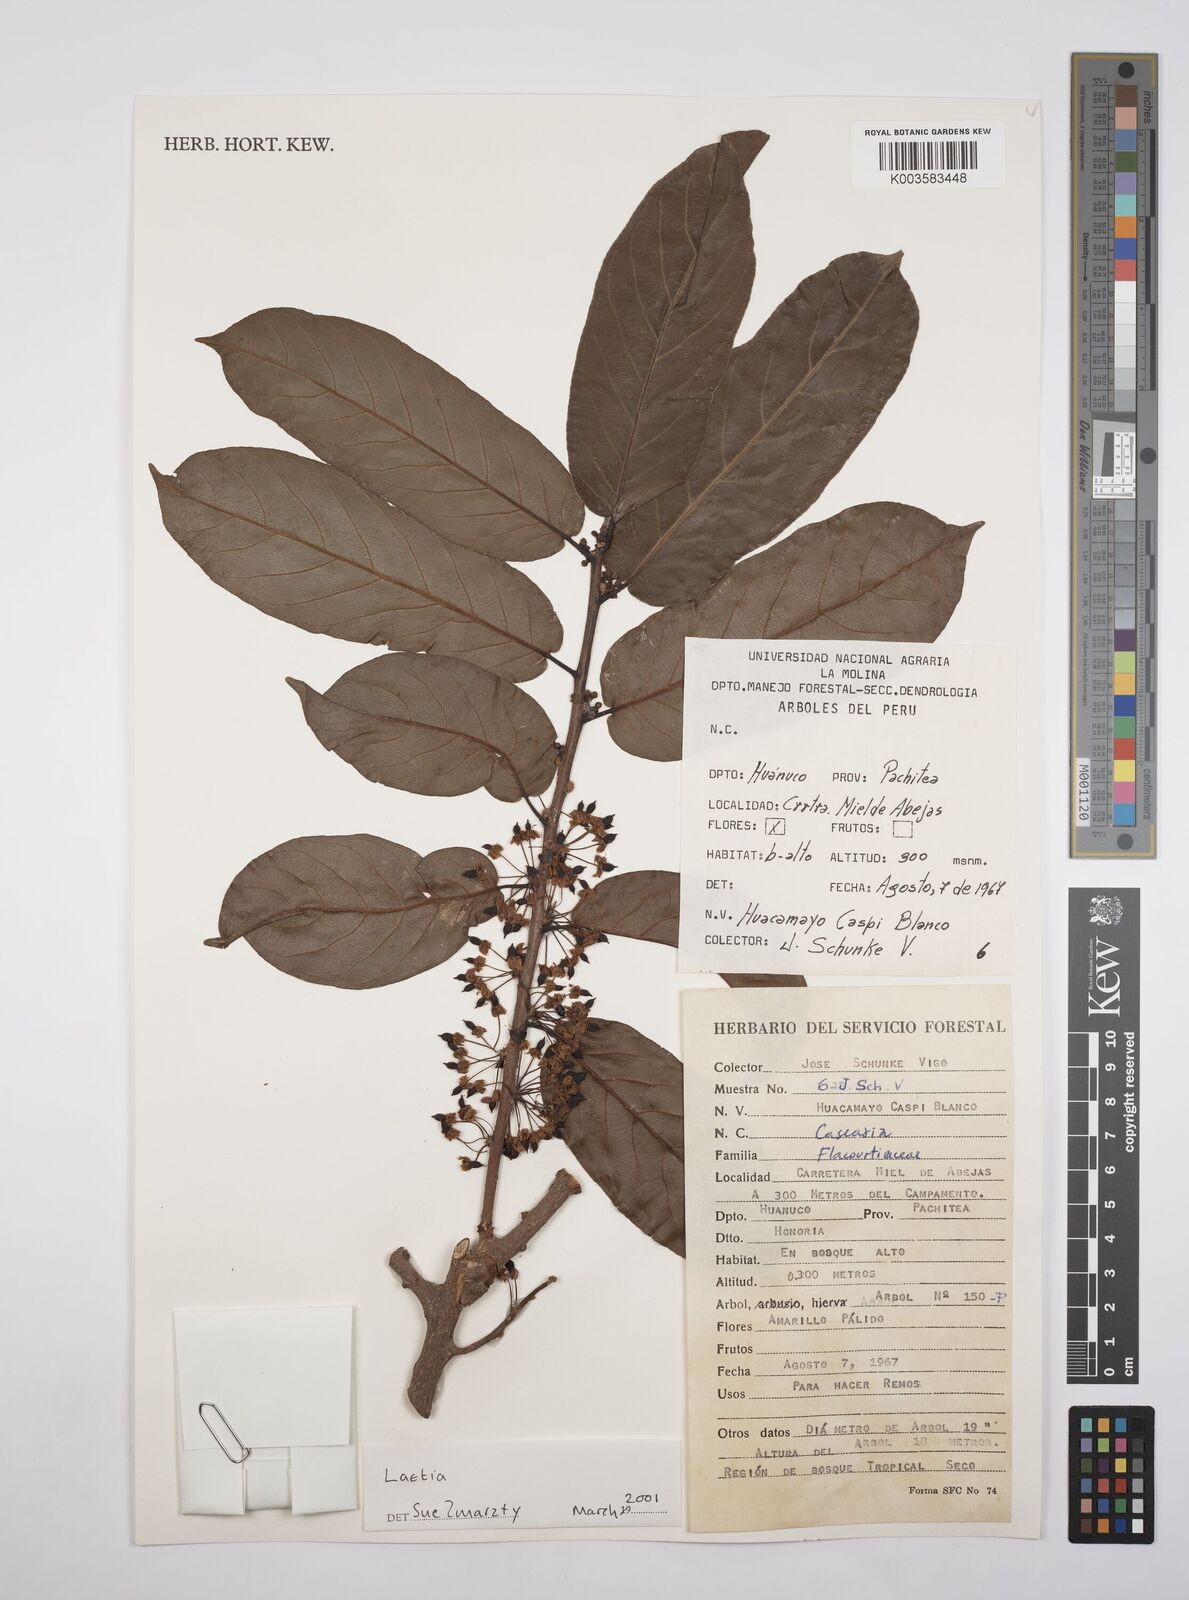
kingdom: Plantae
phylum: Tracheophyta
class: Magnoliopsida
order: Malpighiales
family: Flacourtiaceae
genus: Laetia
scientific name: Laetia
